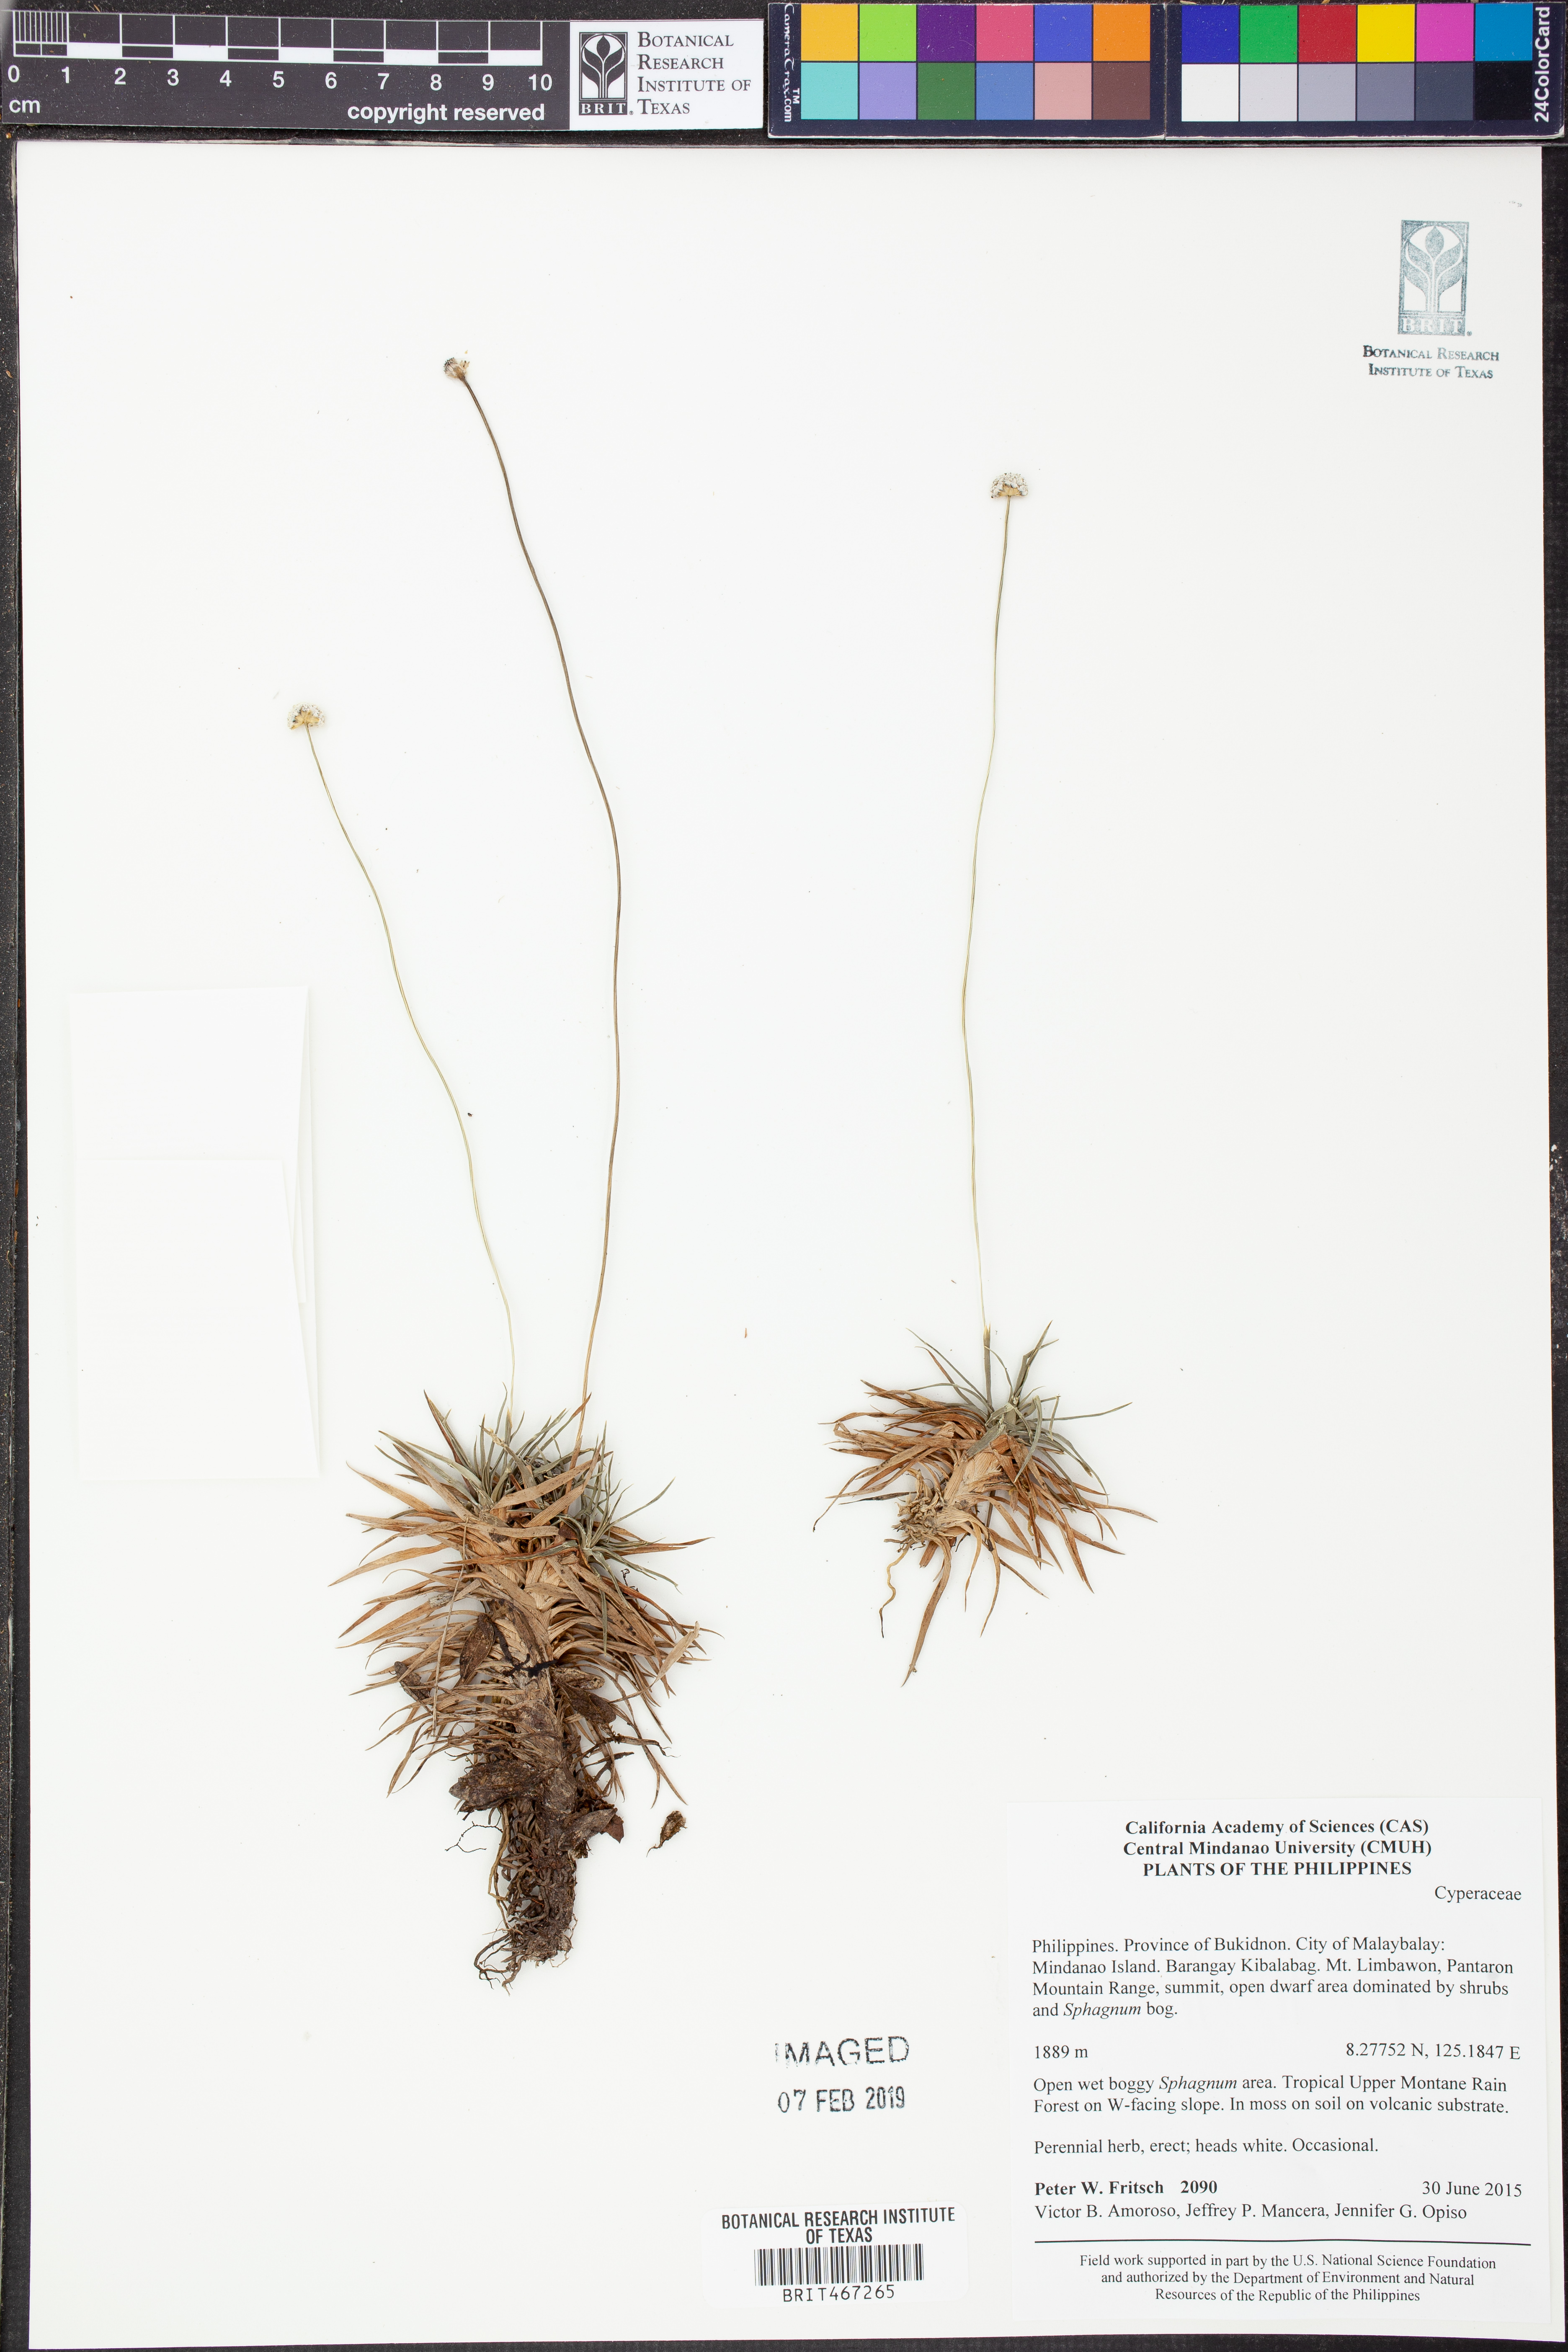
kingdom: Plantae
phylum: Tracheophyta
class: Liliopsida
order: Poales
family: Cyperaceae
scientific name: Cyperaceae
